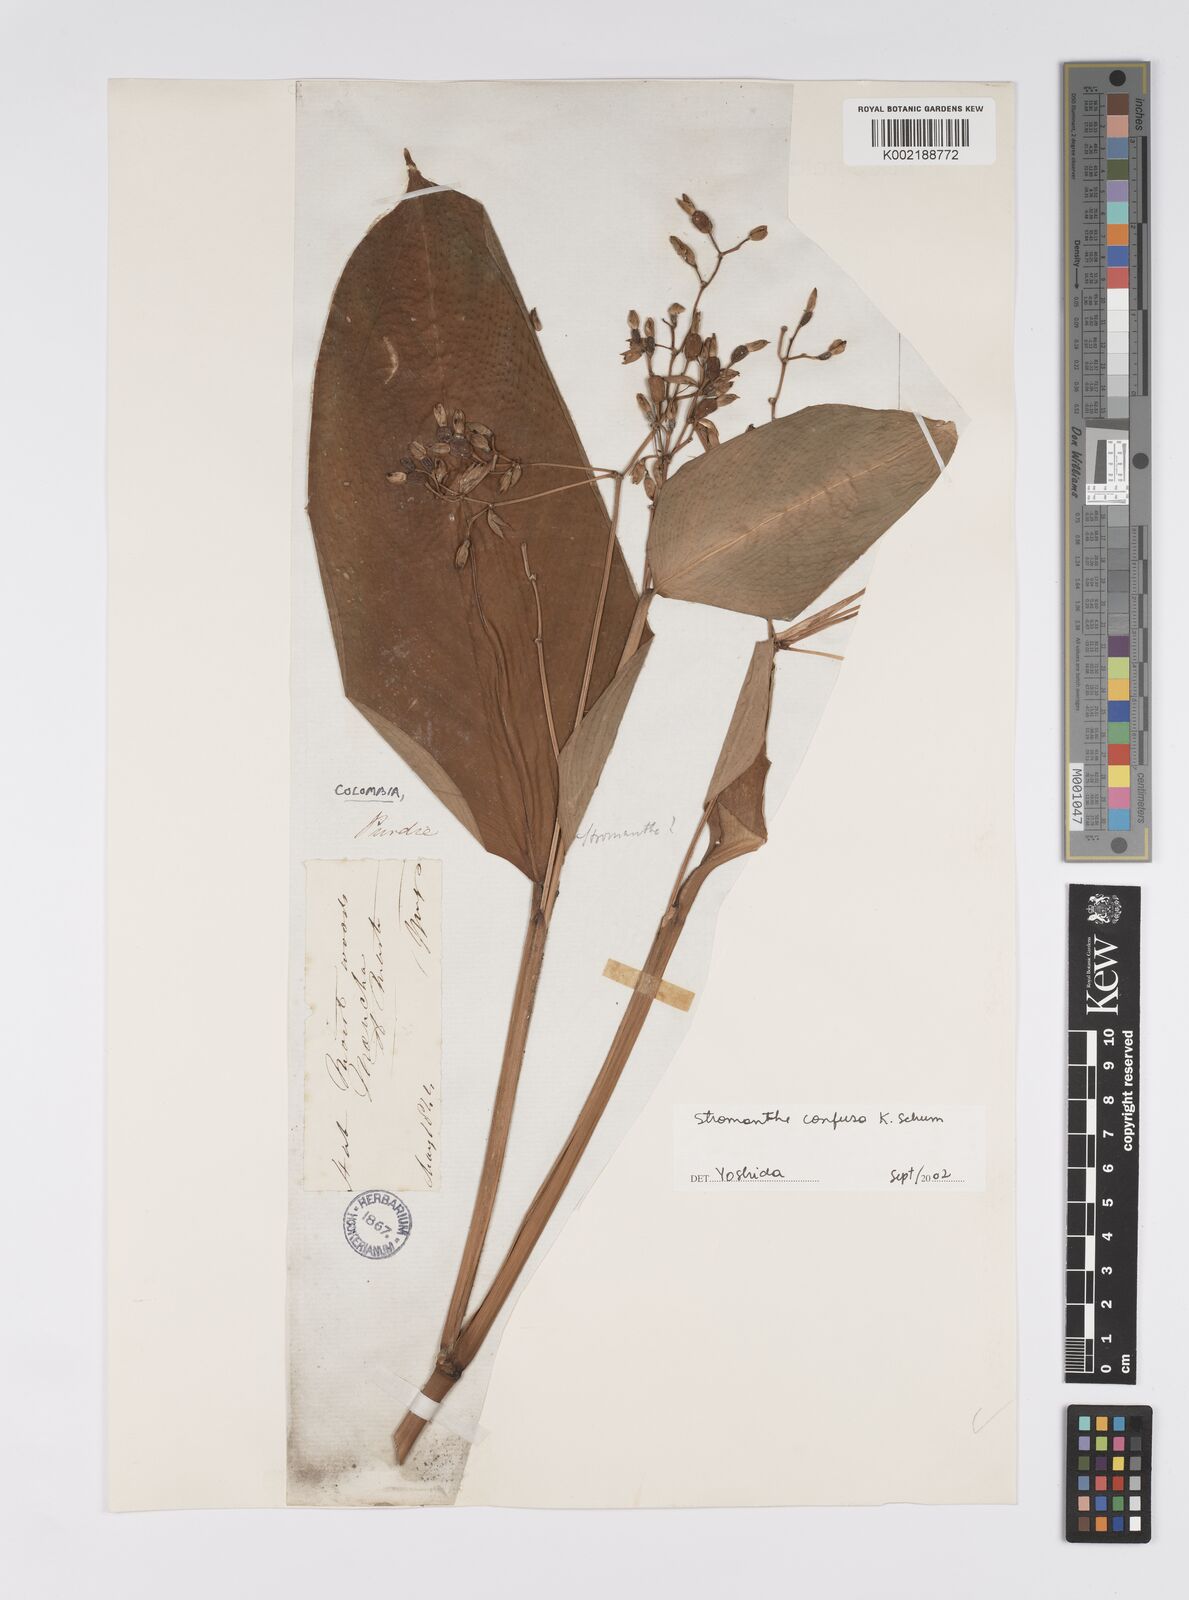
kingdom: Plantae
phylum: Tracheophyta
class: Liliopsida
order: Zingiberales
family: Marantaceae
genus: Stromanthe
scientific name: Stromanthe confusa
